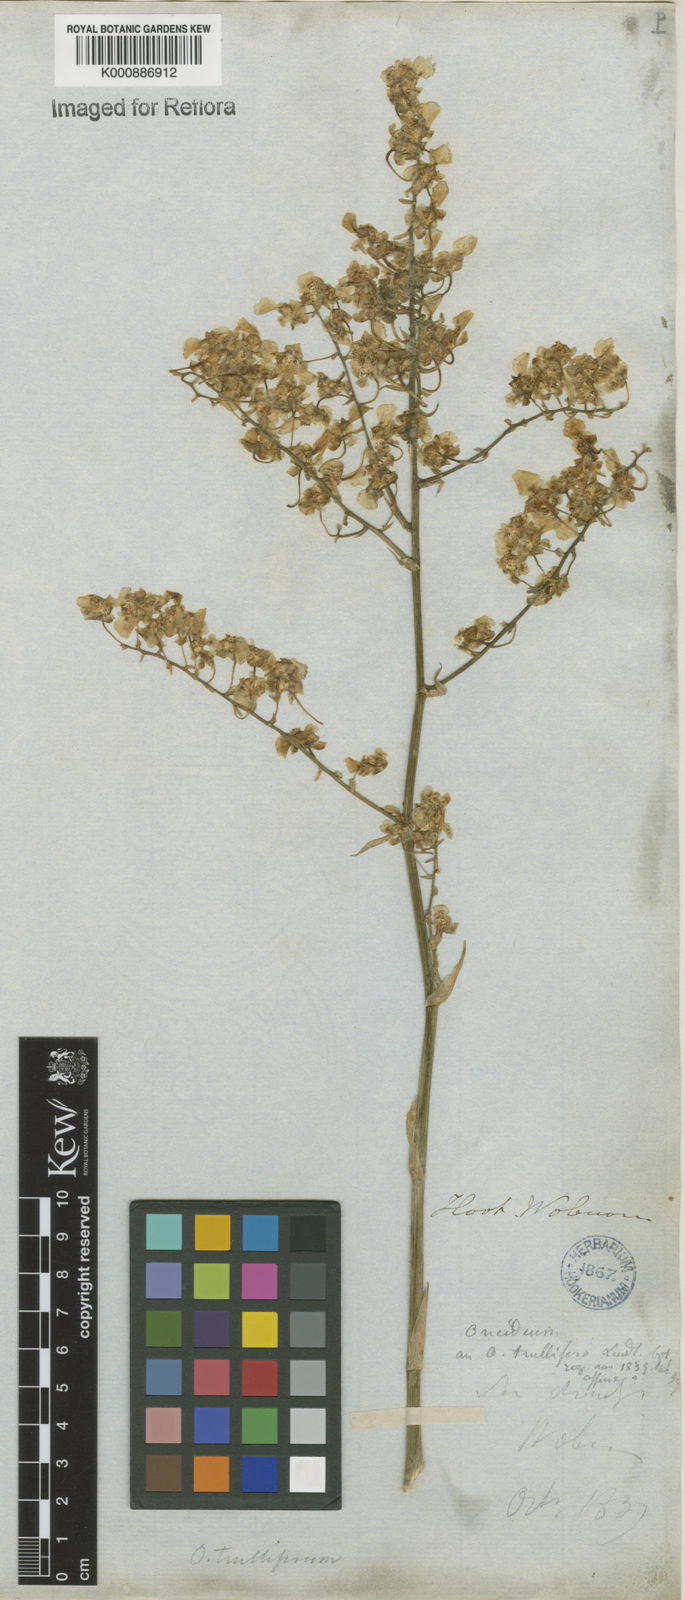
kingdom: Plantae
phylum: Tracheophyta
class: Liliopsida
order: Asparagales
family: Orchidaceae
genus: Gomesa
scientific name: Gomesa venusta
